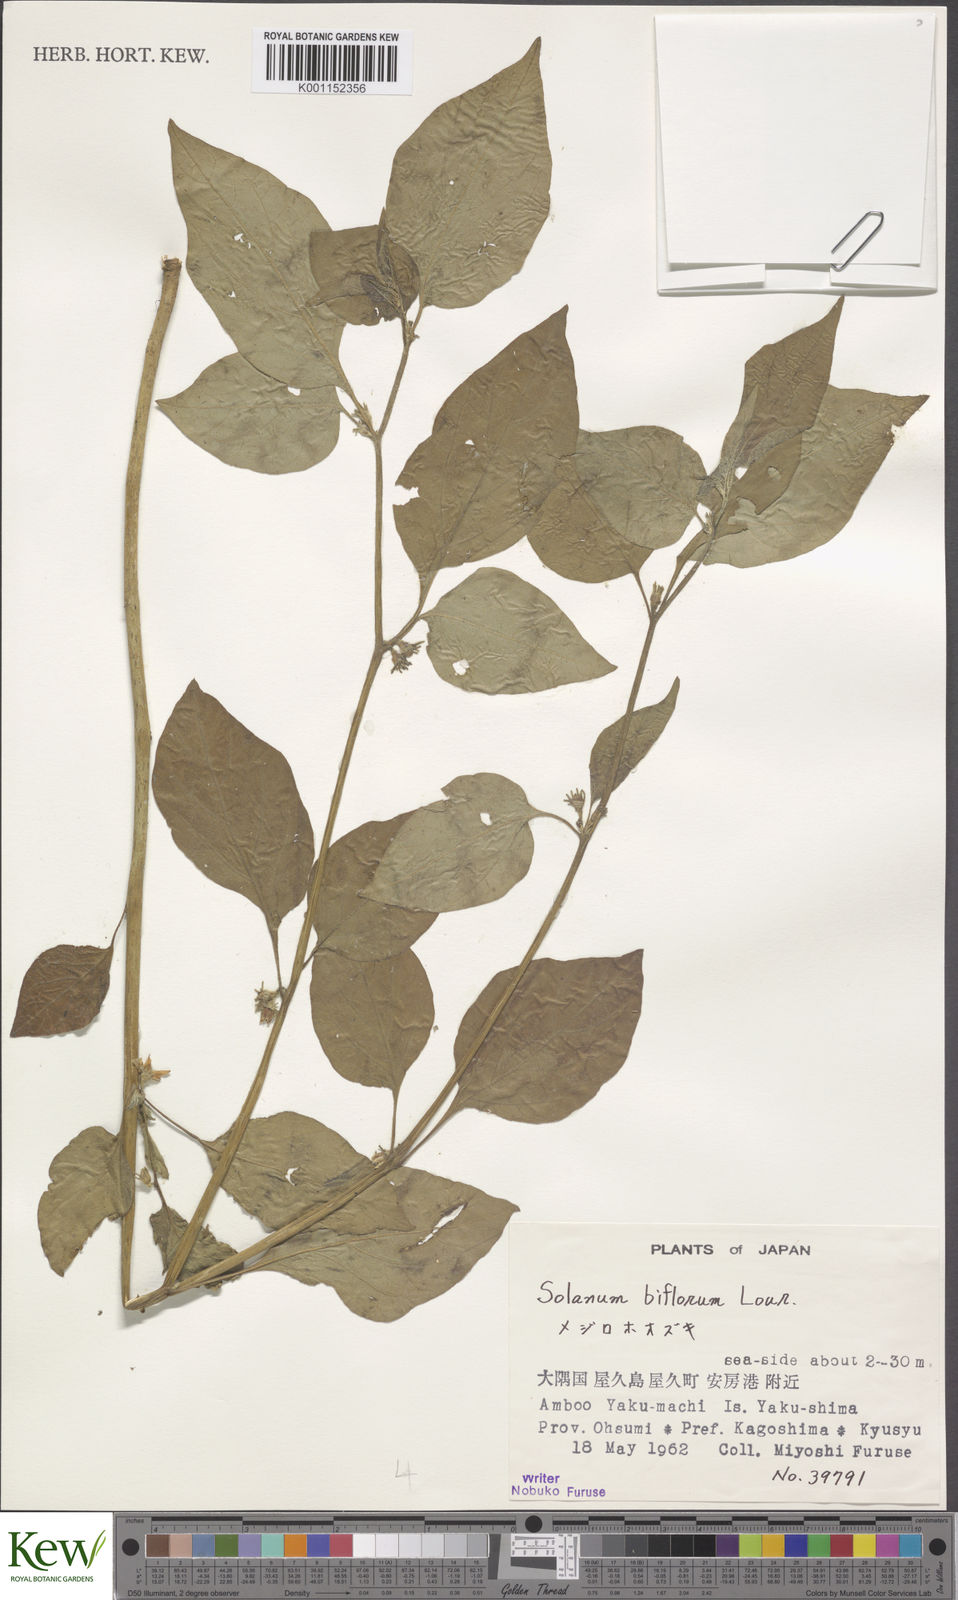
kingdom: Plantae
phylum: Tracheophyta
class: Magnoliopsida
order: Solanales
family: Solanaceae
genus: Lycianthes
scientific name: Lycianthes biflora
